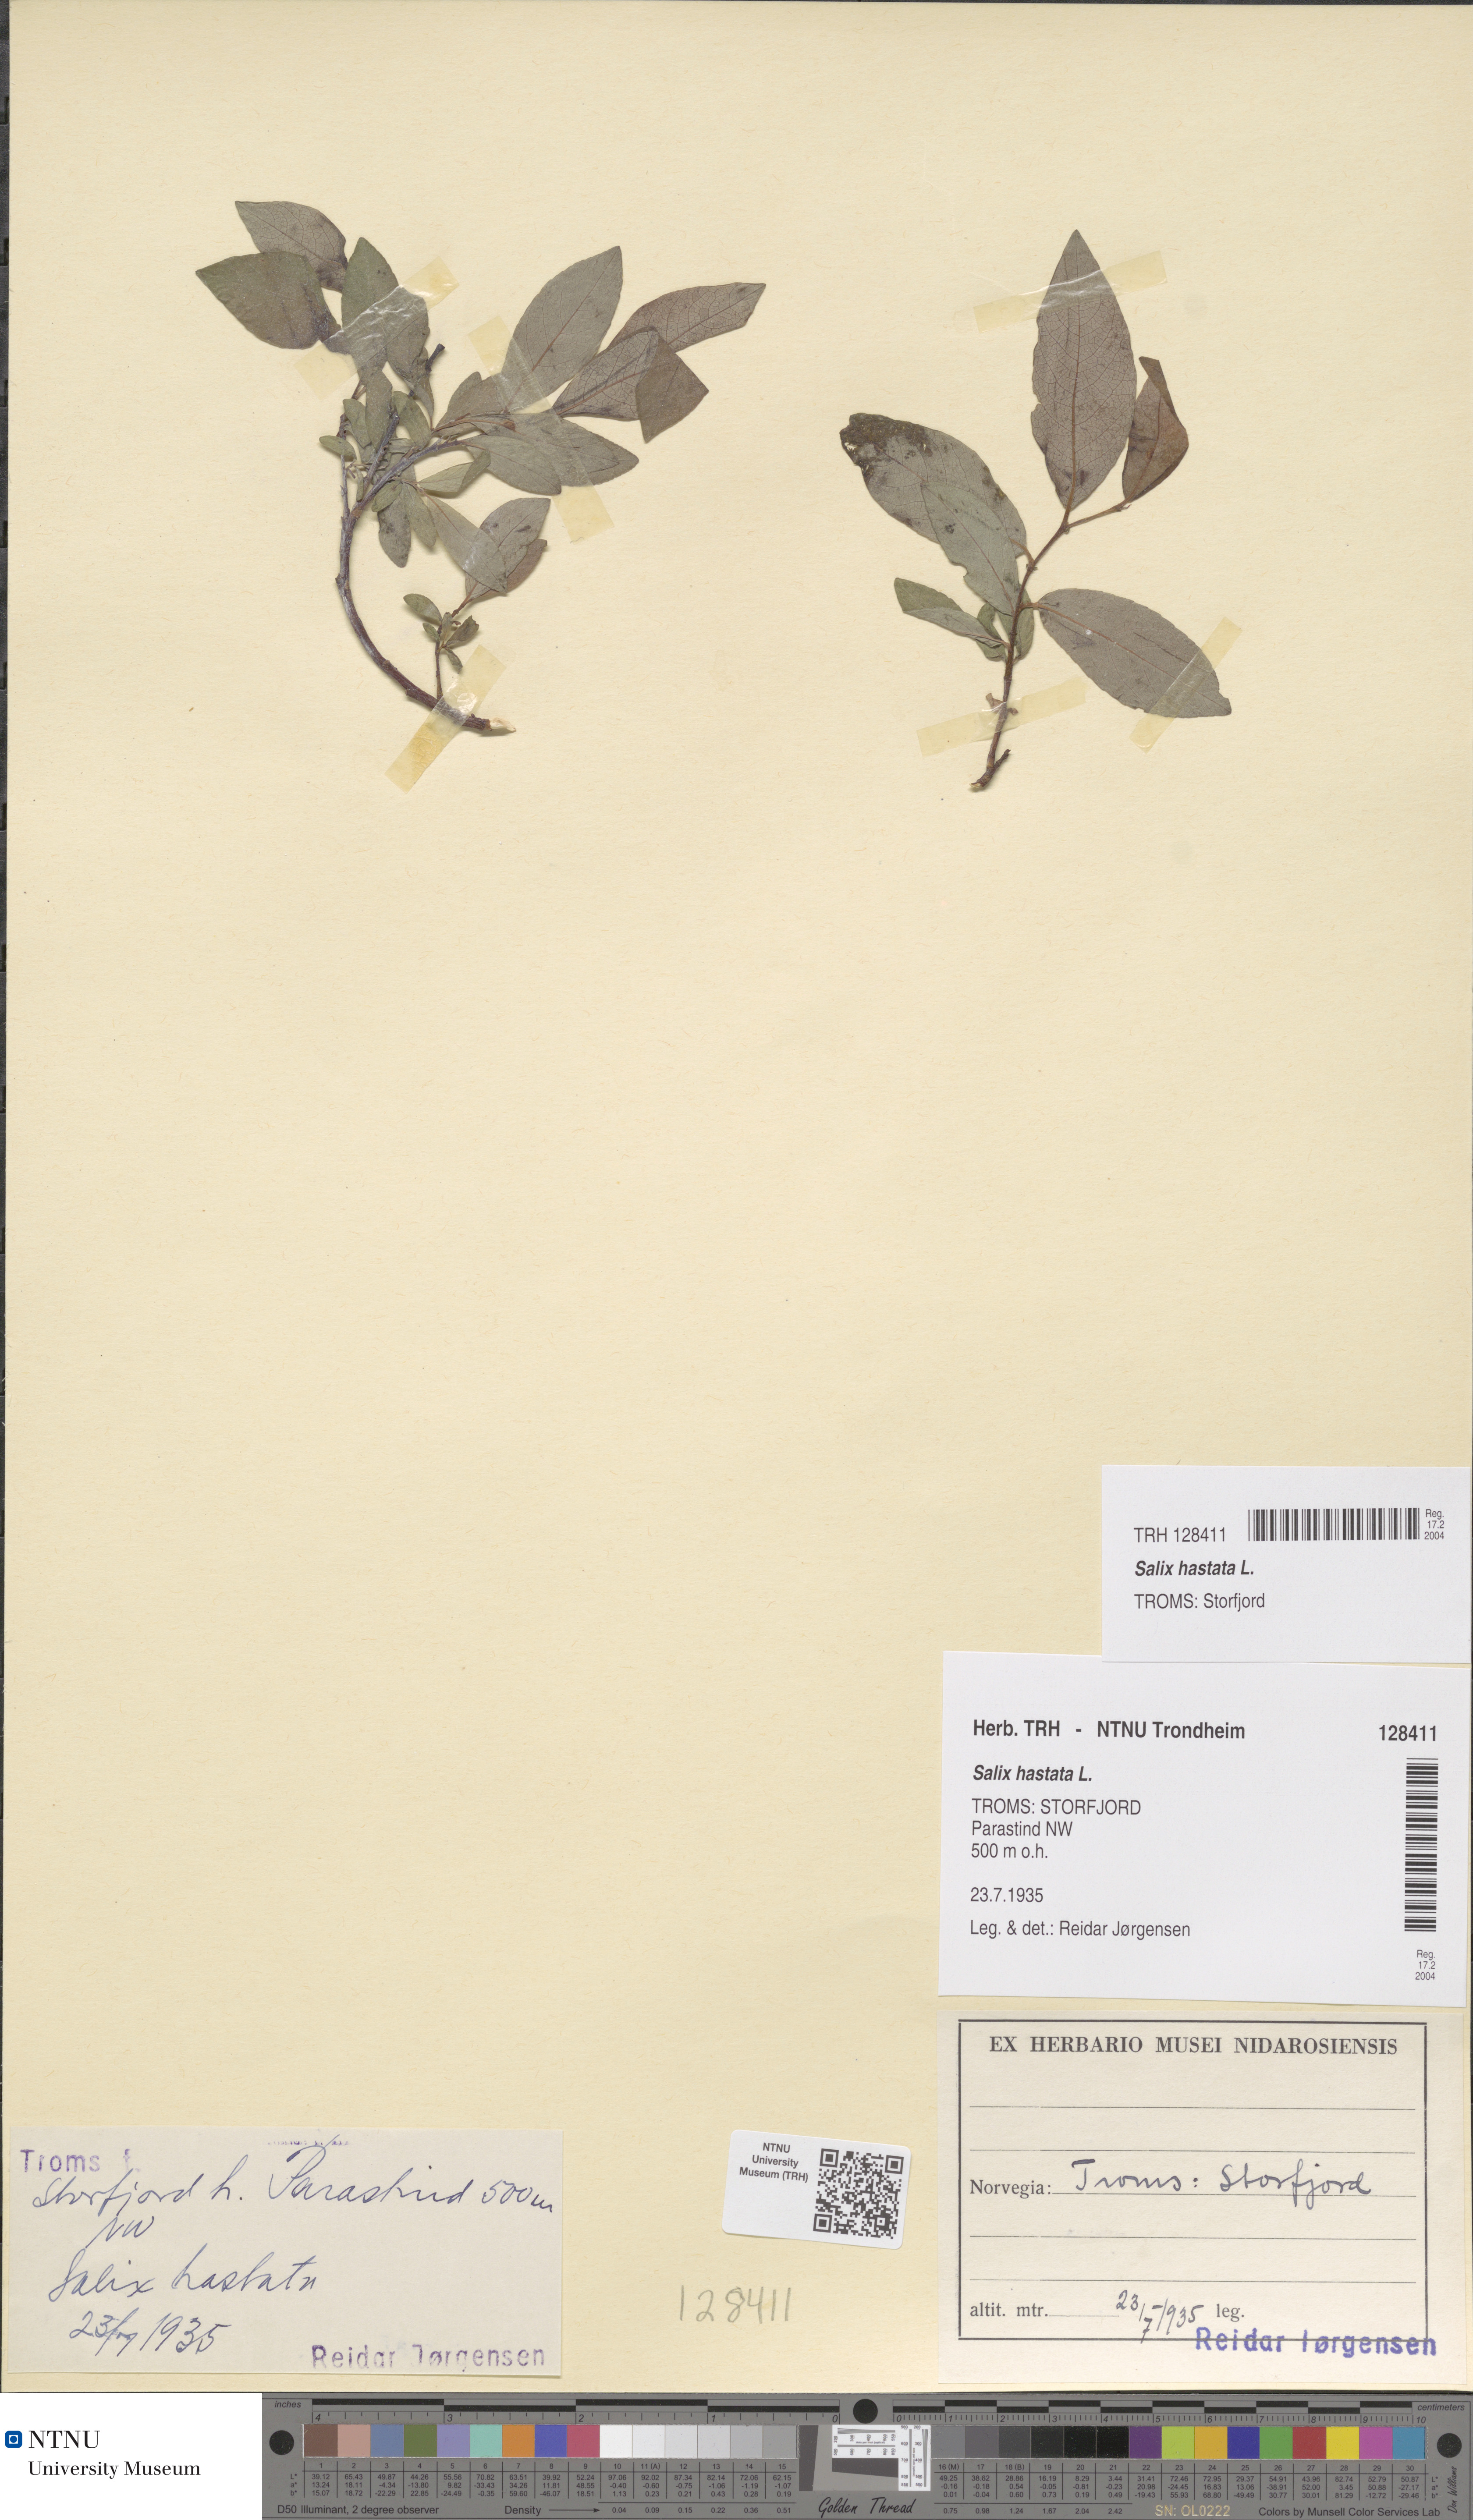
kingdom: Plantae
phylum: Tracheophyta
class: Magnoliopsida
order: Malpighiales
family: Salicaceae
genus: Salix
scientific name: Salix hastata
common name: Halberd willow
